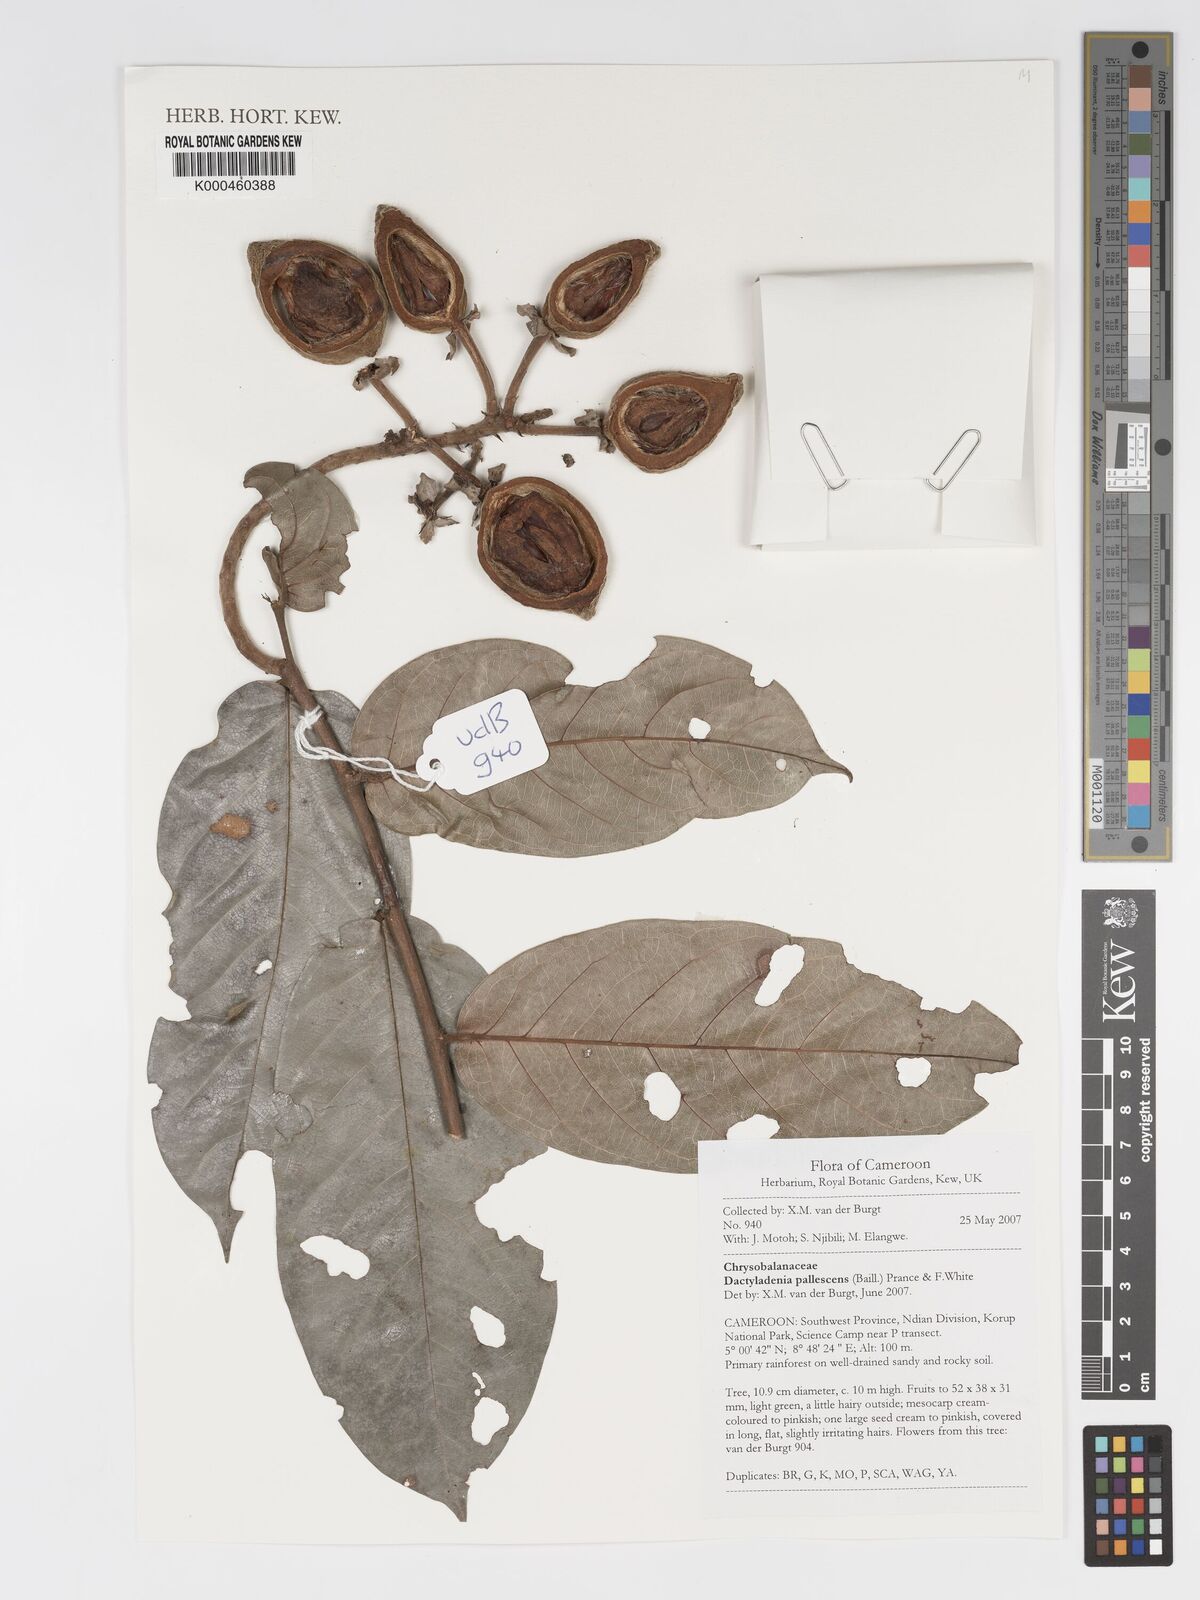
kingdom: Plantae
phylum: Tracheophyta
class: Magnoliopsida
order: Malpighiales
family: Chrysobalanaceae
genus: Dactyladenia
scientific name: Dactyladenia pallescens
